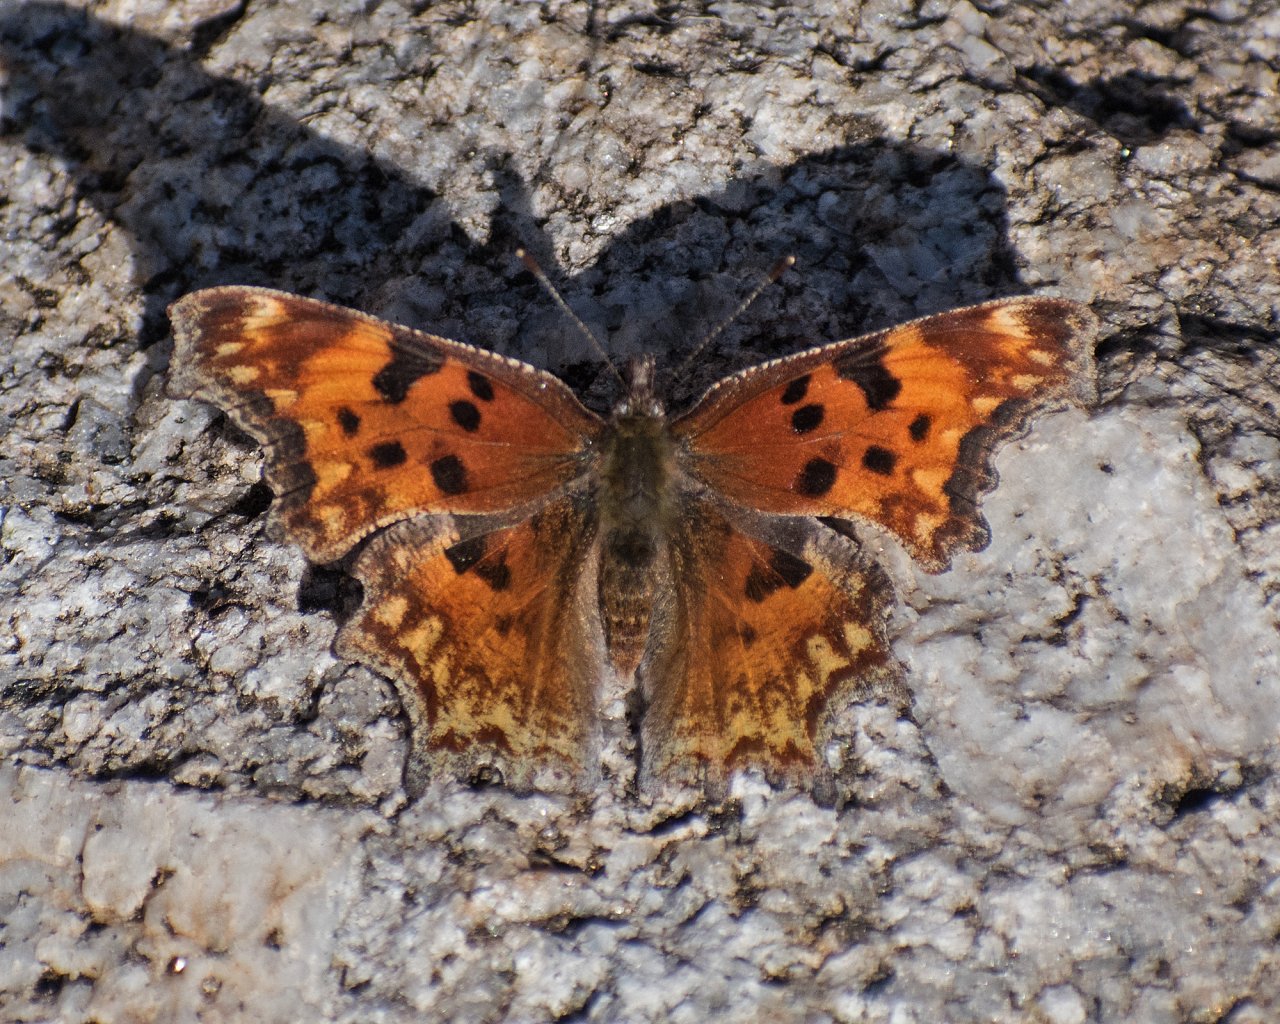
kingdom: Animalia
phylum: Arthropoda
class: Insecta
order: Lepidoptera
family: Nymphalidae
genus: Polygonia
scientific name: Polygonia satyrus
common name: Satyr Comma
